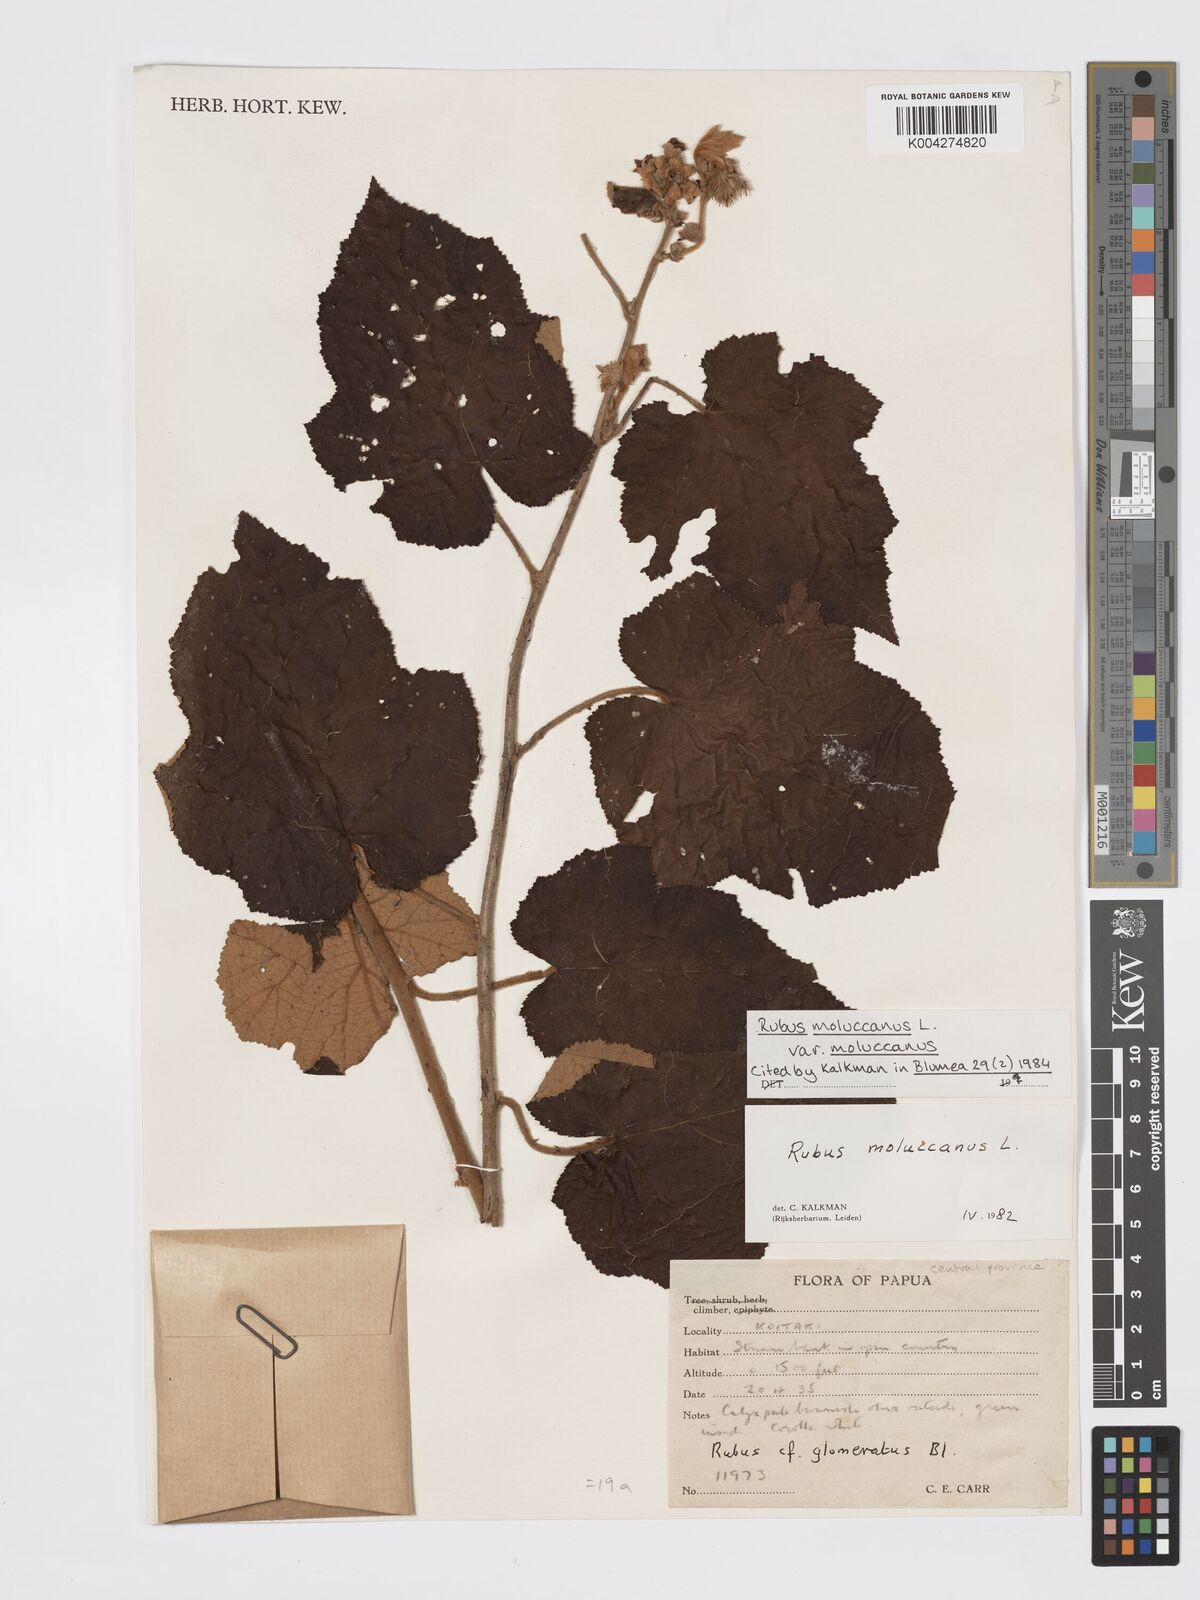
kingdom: Plantae
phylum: Tracheophyta
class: Magnoliopsida
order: Rosales
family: Rosaceae
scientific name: Rosaceae
